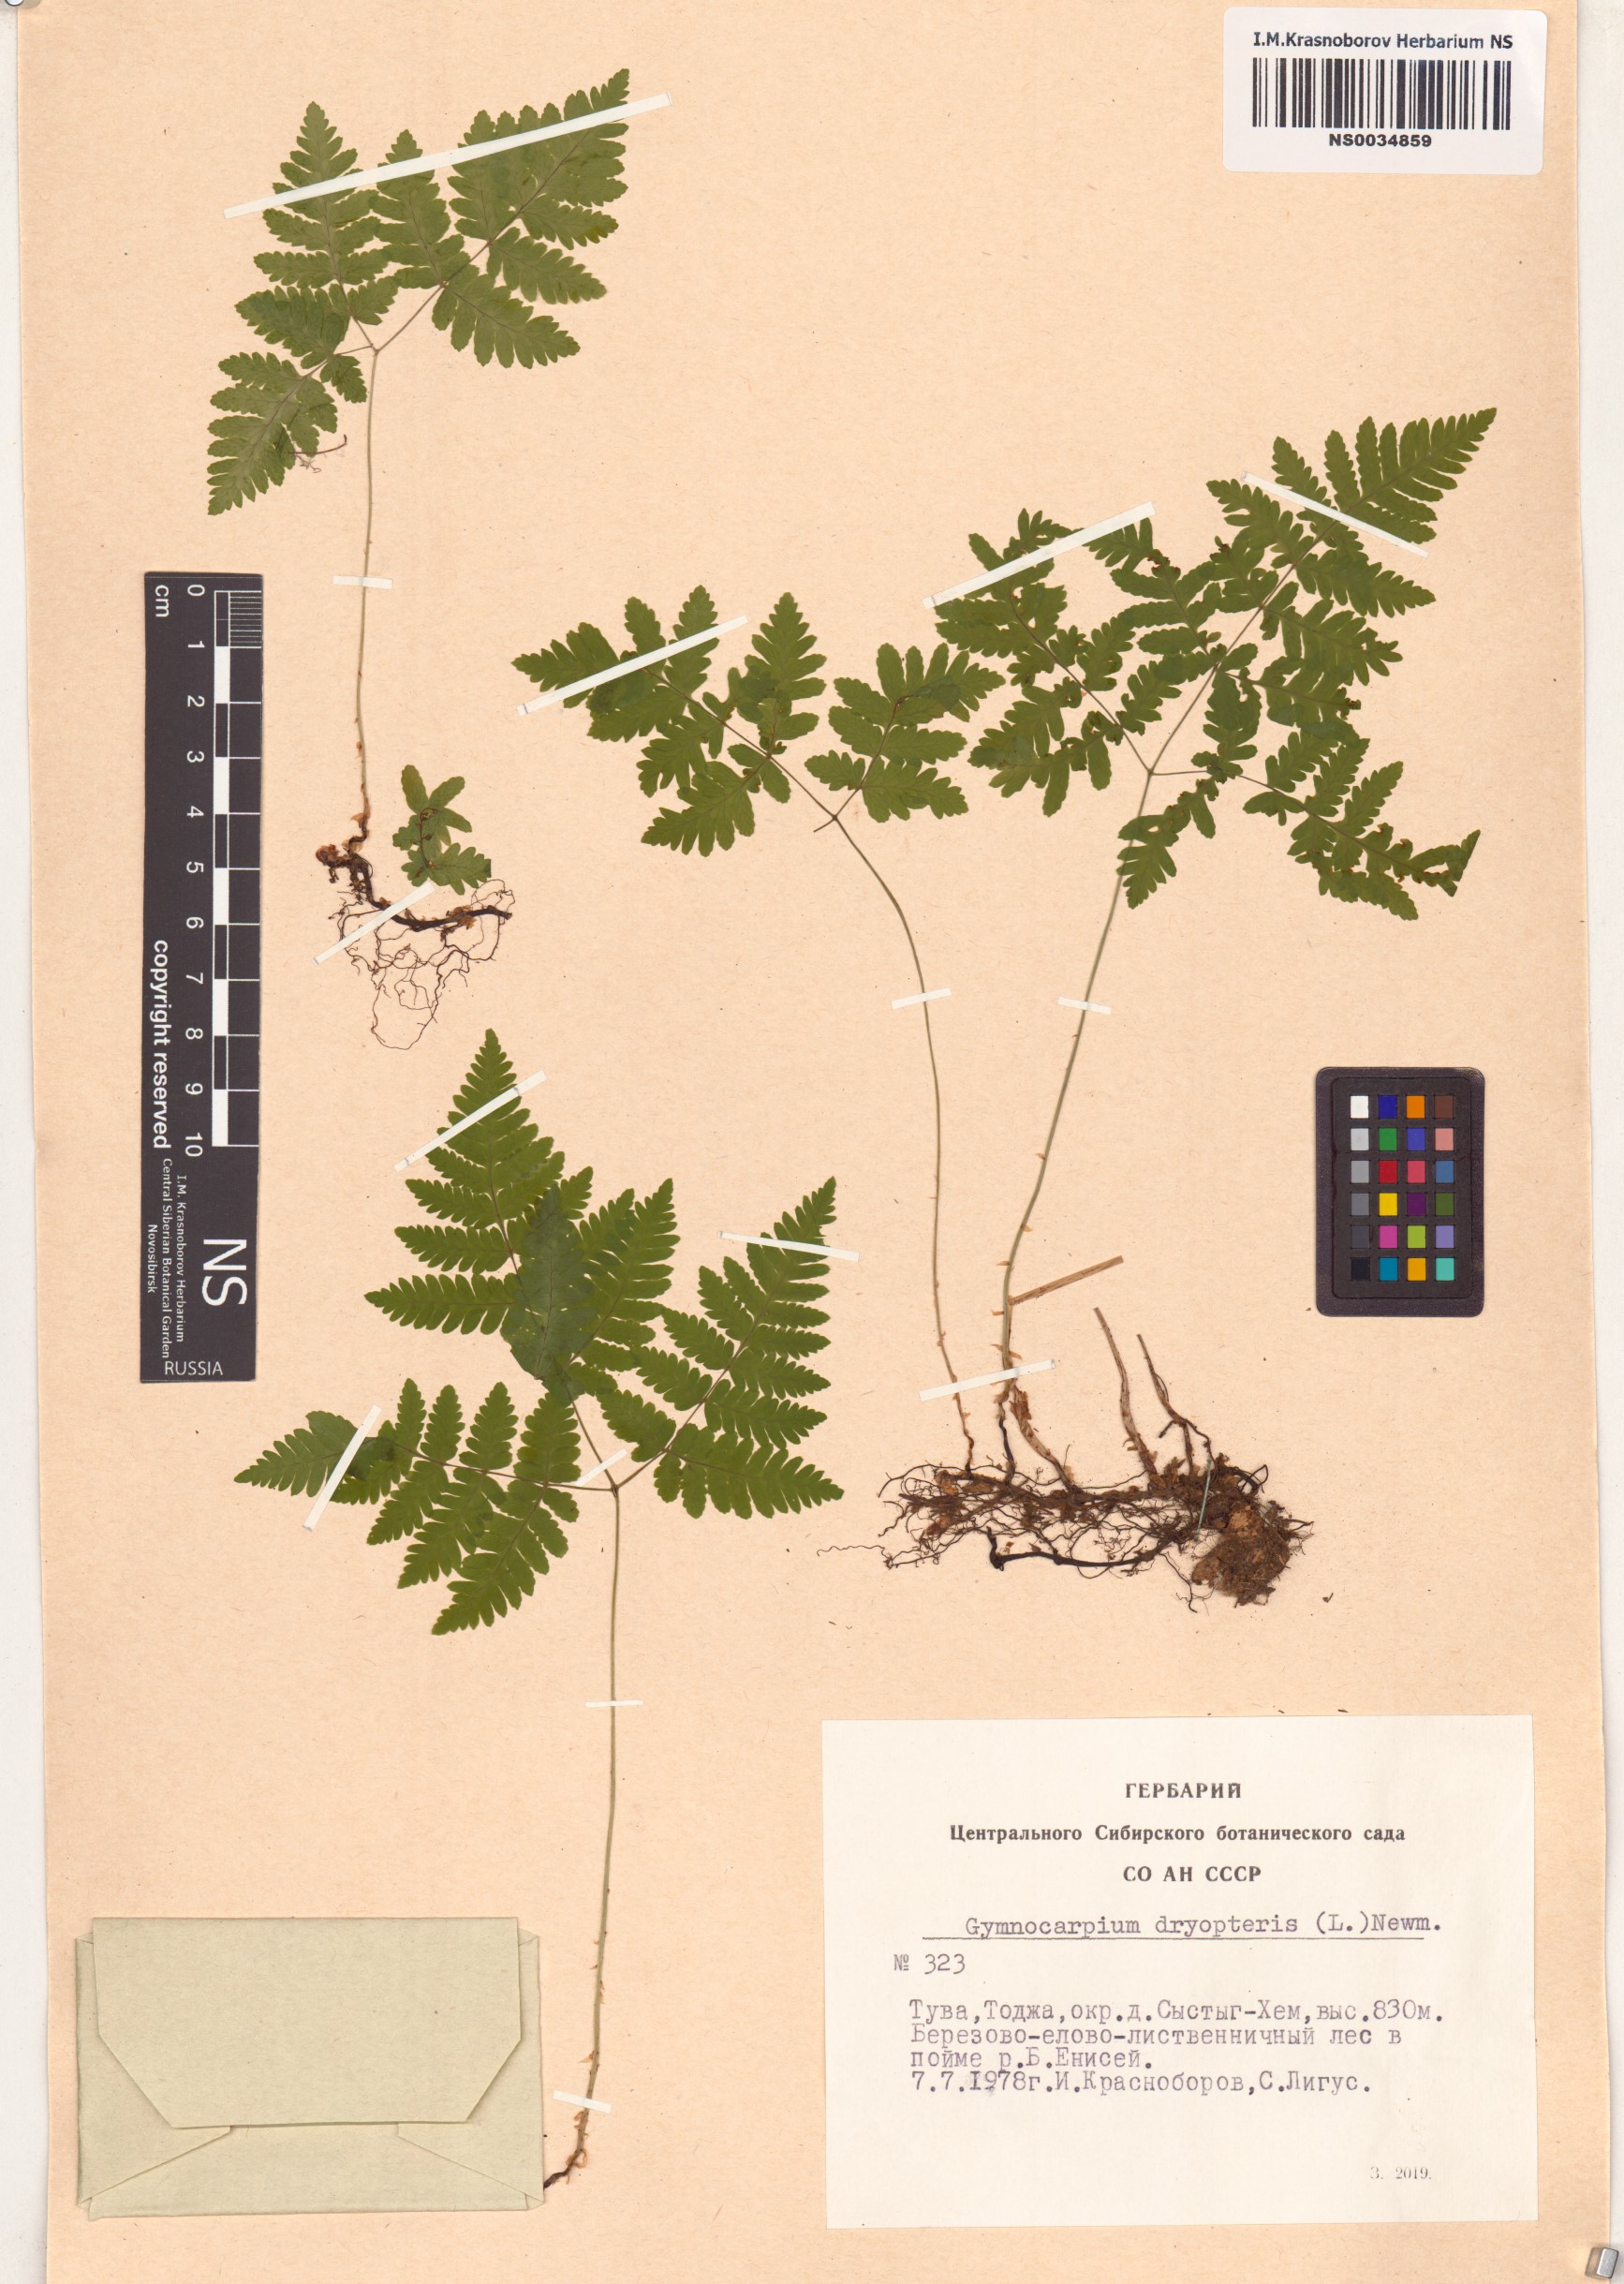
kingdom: Plantae
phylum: Tracheophyta
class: Polypodiopsida
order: Polypodiales
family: Cystopteridaceae
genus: Gymnocarpium
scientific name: Gymnocarpium dryopteris
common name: Oak fern
